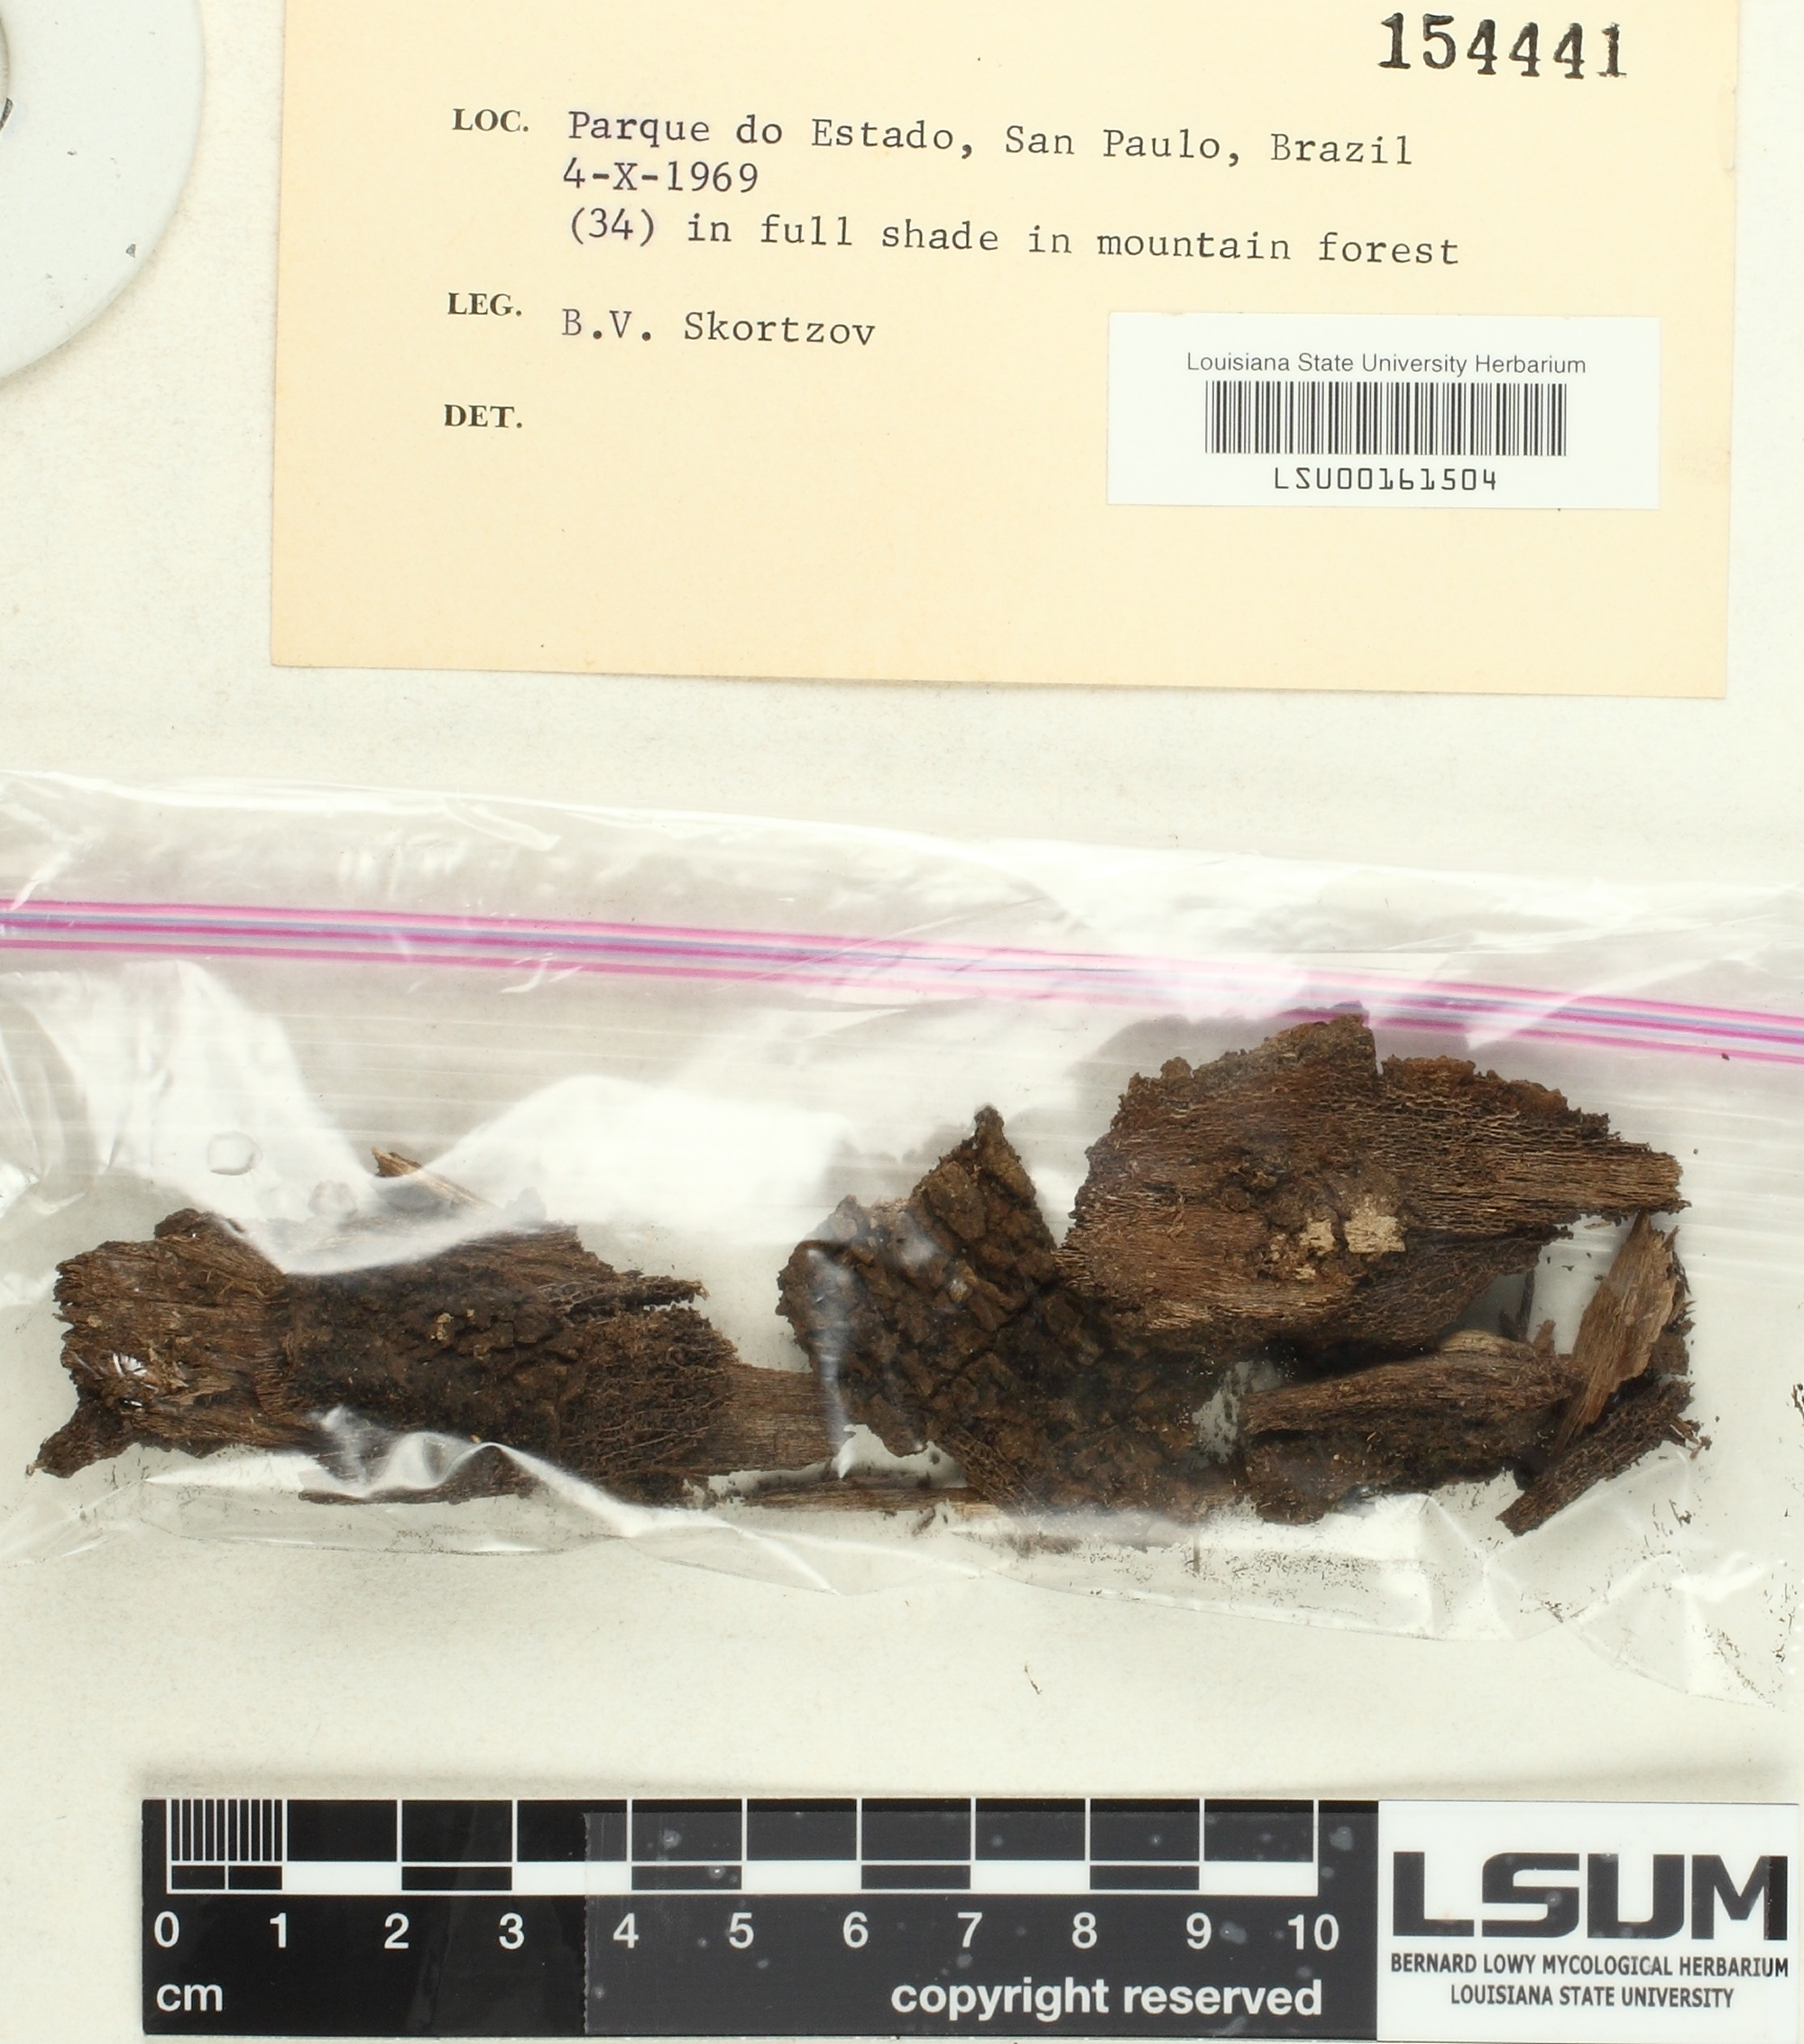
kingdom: Fungi
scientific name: Fungi
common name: Fungi
